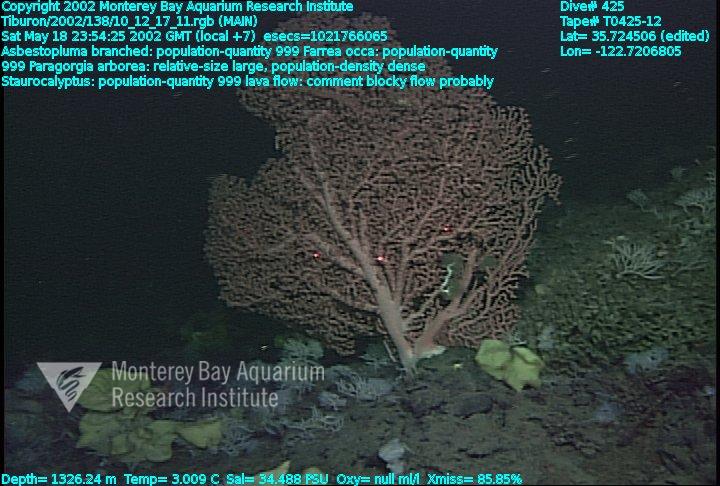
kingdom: Animalia
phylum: Porifera
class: Hexactinellida
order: Lyssacinosida
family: Rossellidae
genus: Staurocalyptus
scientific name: Staurocalyptus
